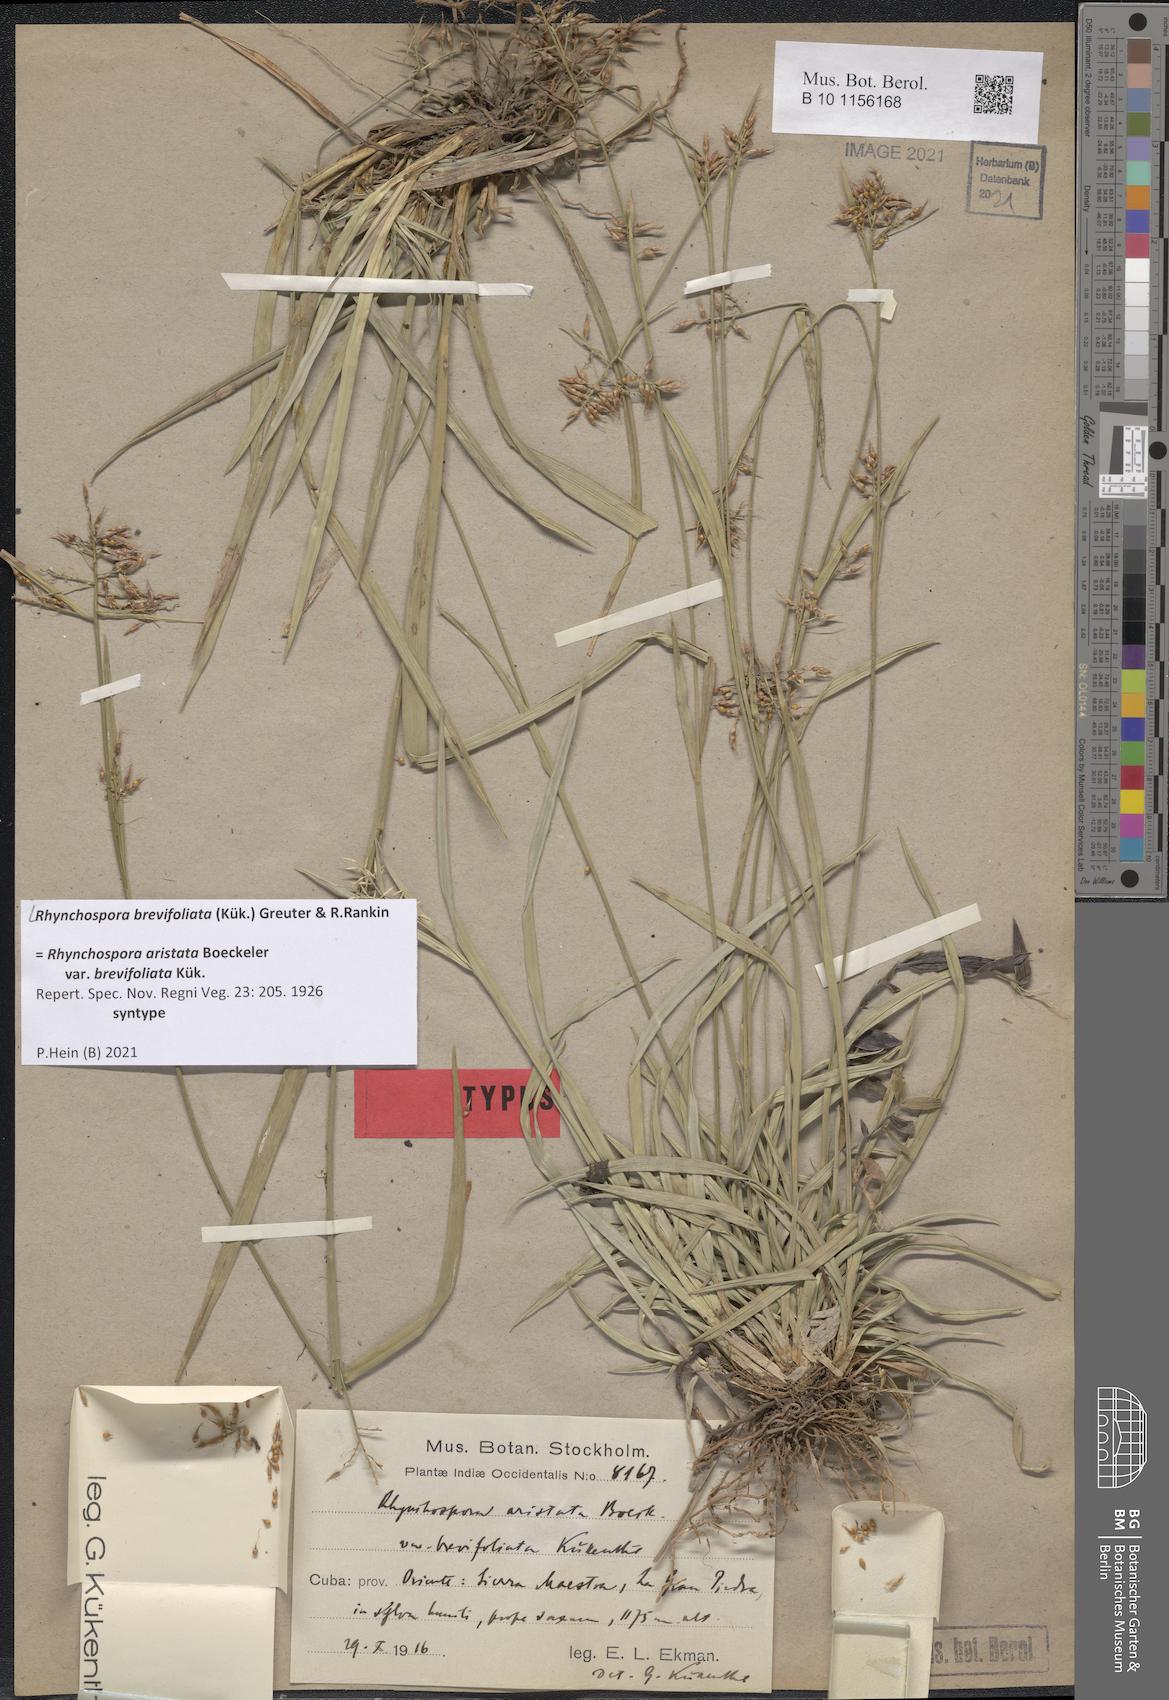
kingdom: Plantae
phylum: Tracheophyta
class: Liliopsida
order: Poales
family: Cyperaceae
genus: Rhynchospora
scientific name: Rhynchospora brevifoliata
